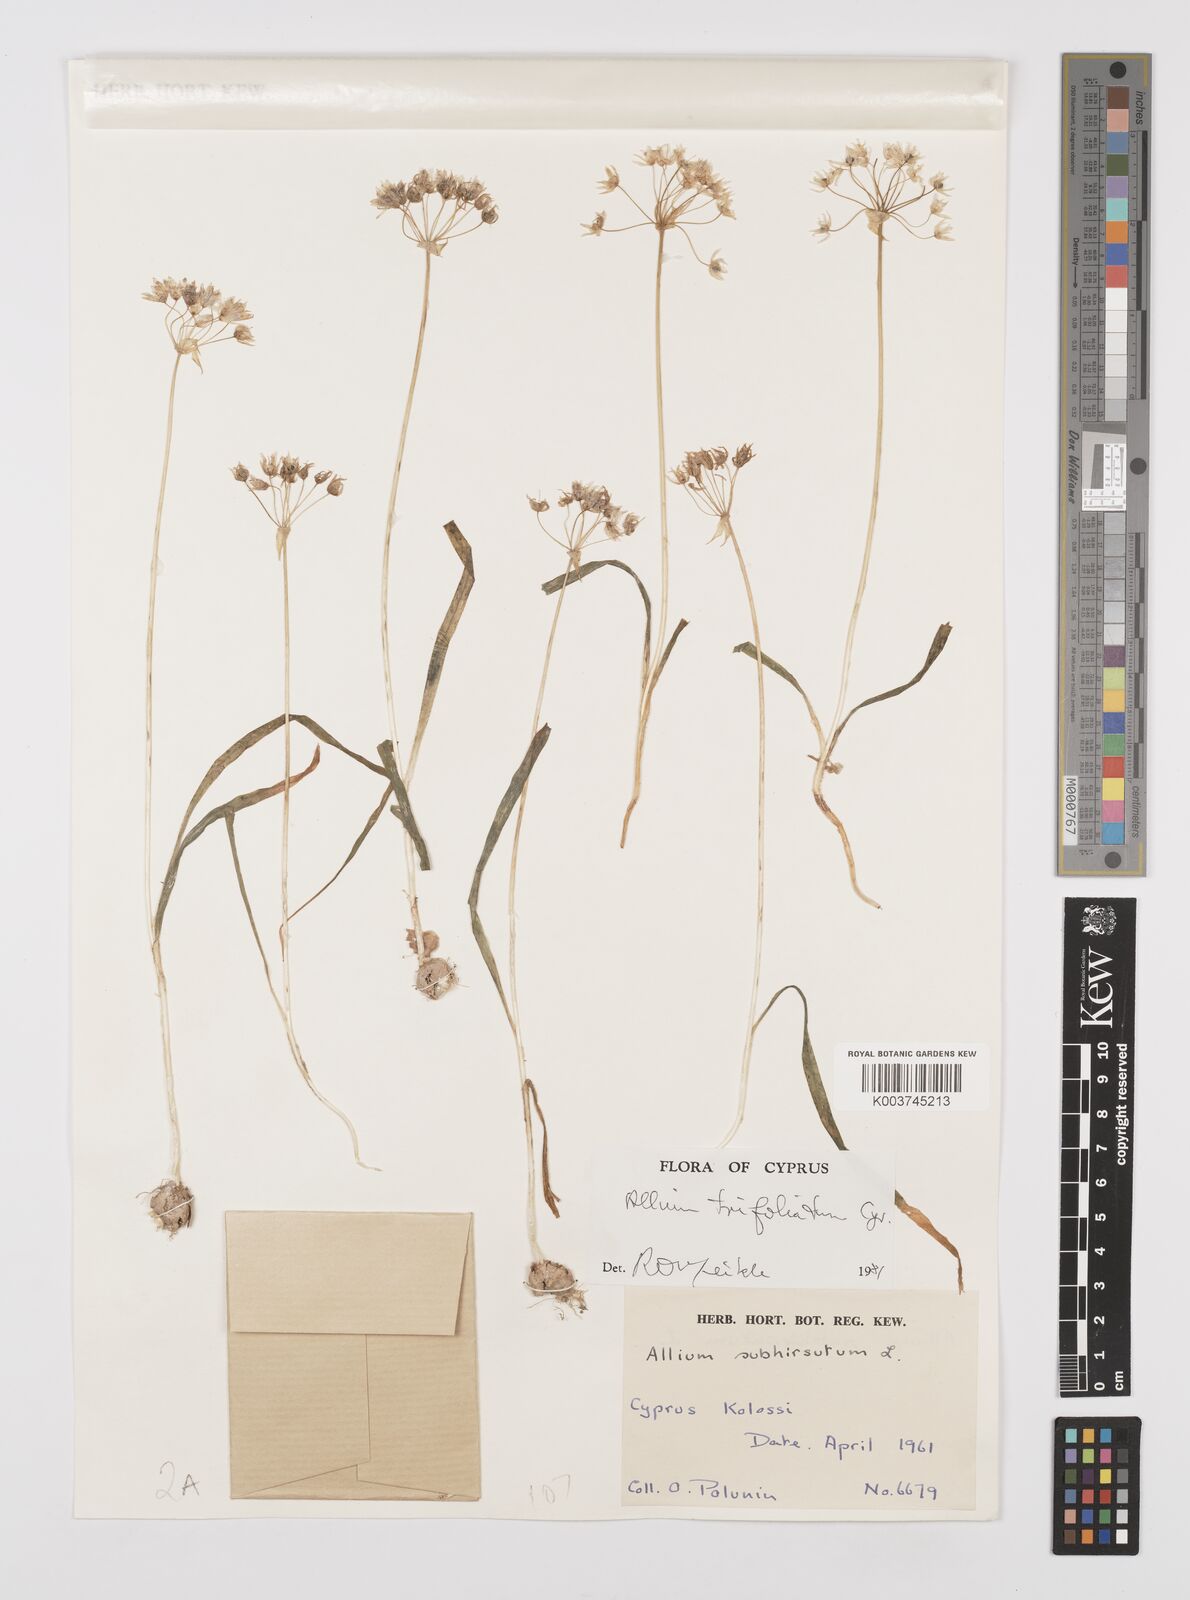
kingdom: Plantae
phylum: Tracheophyta
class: Liliopsida
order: Asparagales
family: Amaryllidaceae
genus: Allium
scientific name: Allium trifoliatum
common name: Pink garlic
